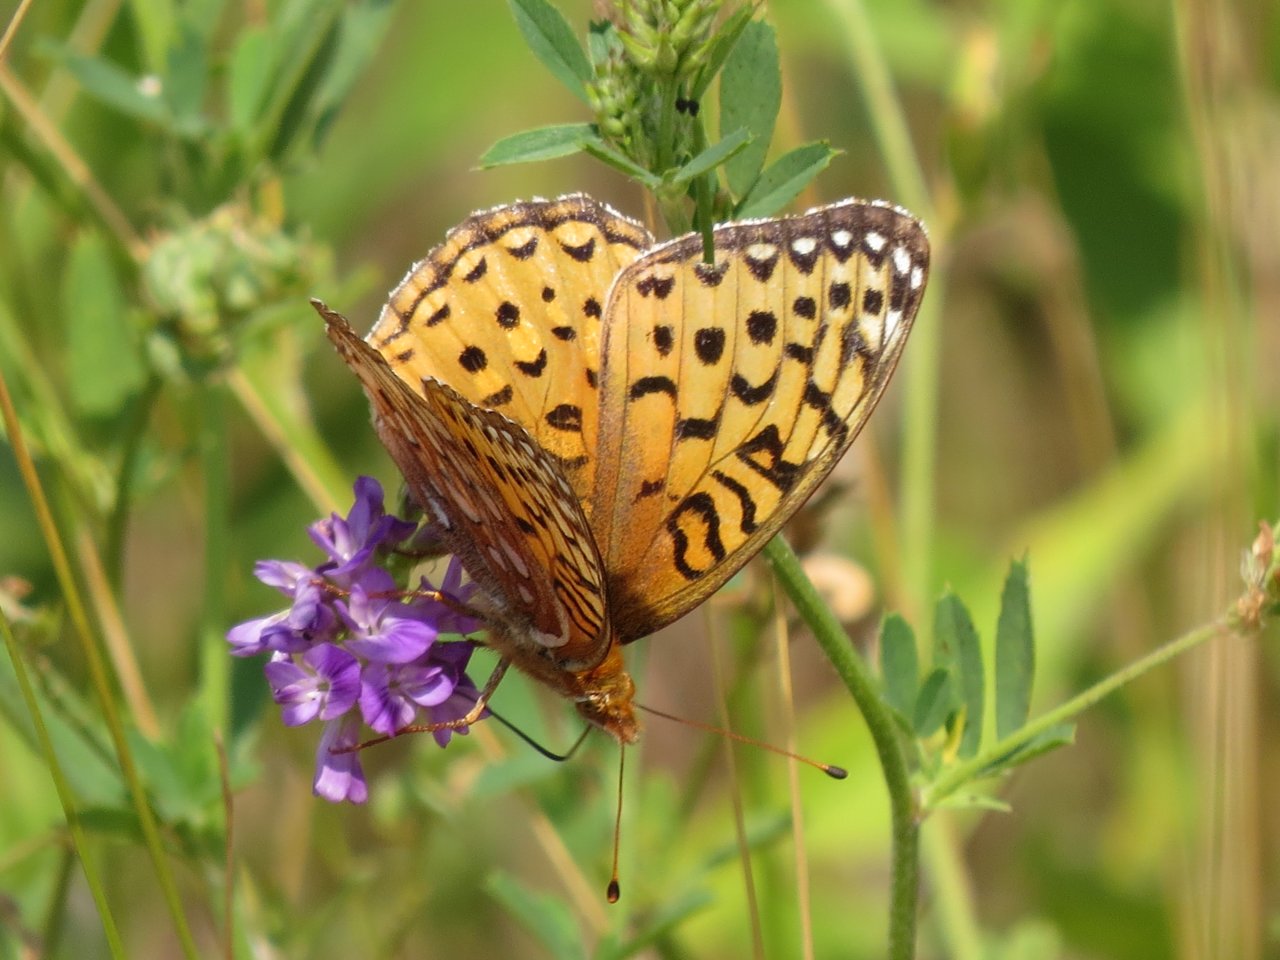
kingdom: Animalia
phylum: Arthropoda
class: Insecta
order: Lepidoptera
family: Nymphalidae
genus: Speyeria
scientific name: Speyeria aphrodite
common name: Aphrodite Fritillary
